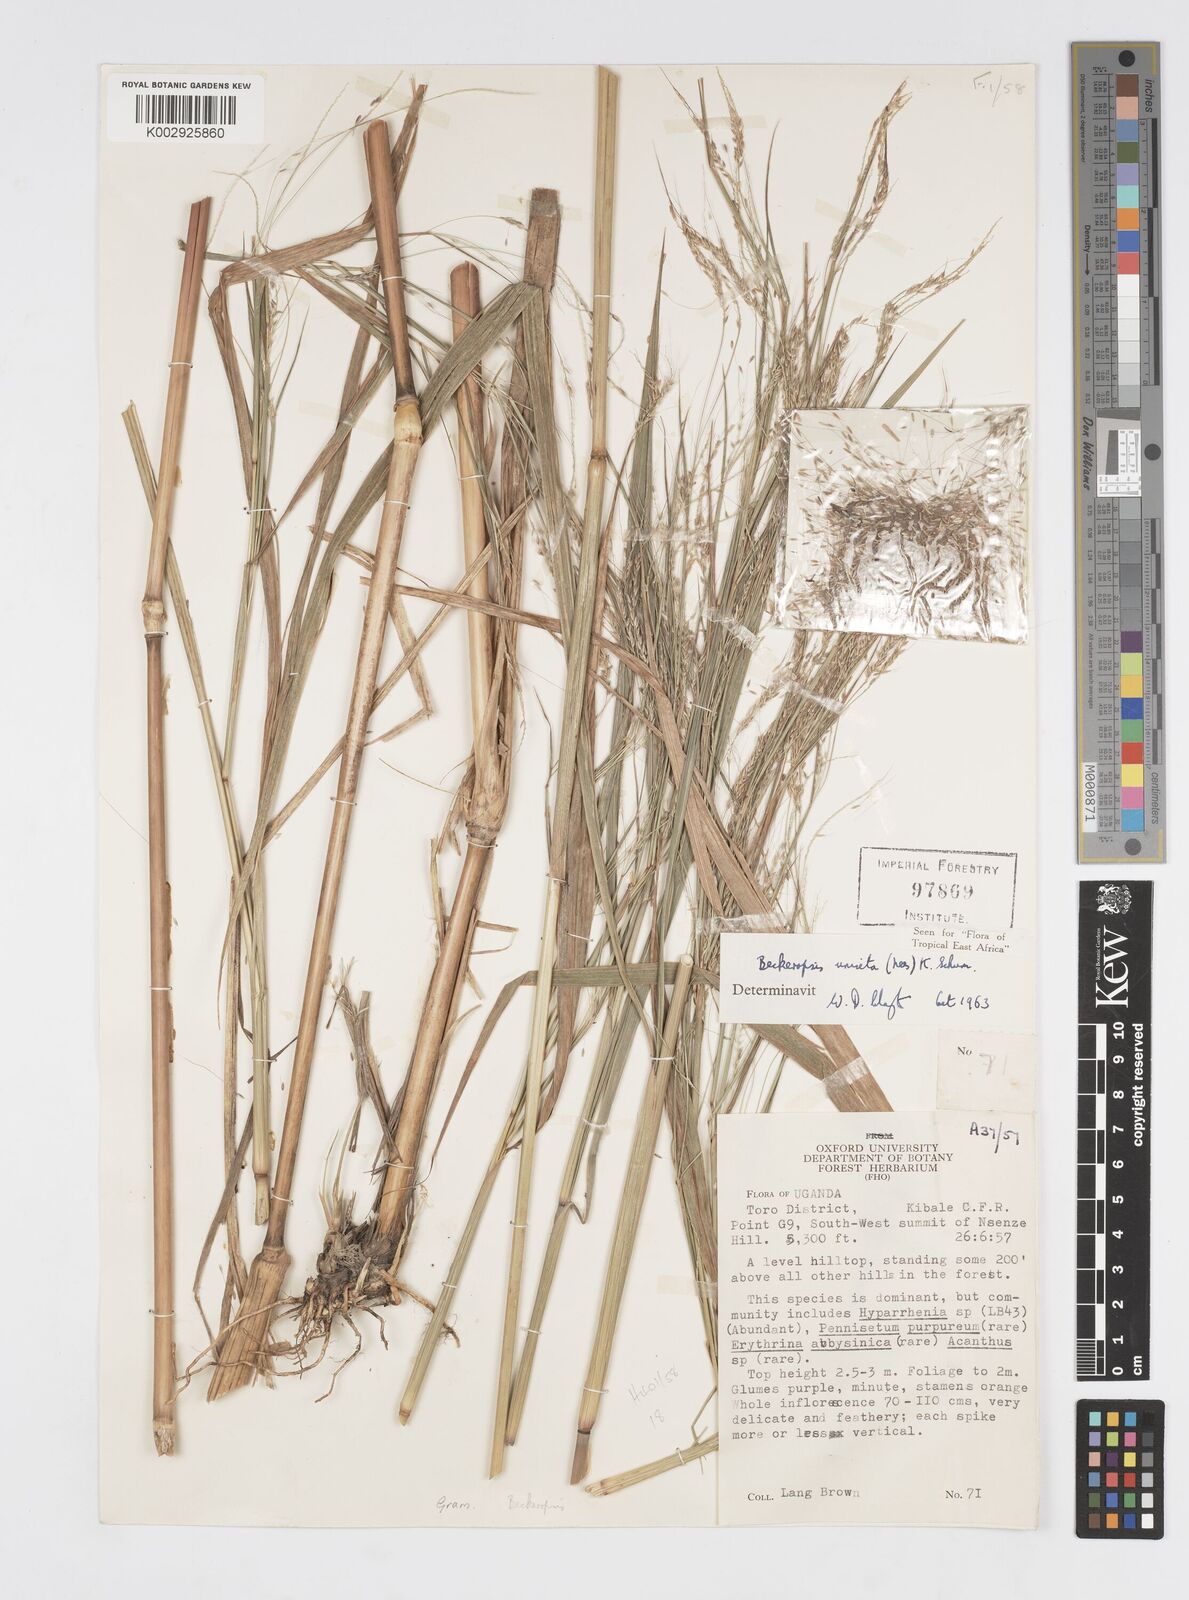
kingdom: Plantae
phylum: Tracheophyta
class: Liliopsida
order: Poales
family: Poaceae
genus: Cenchrus
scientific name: Cenchrus unisetus
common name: Natal grass
